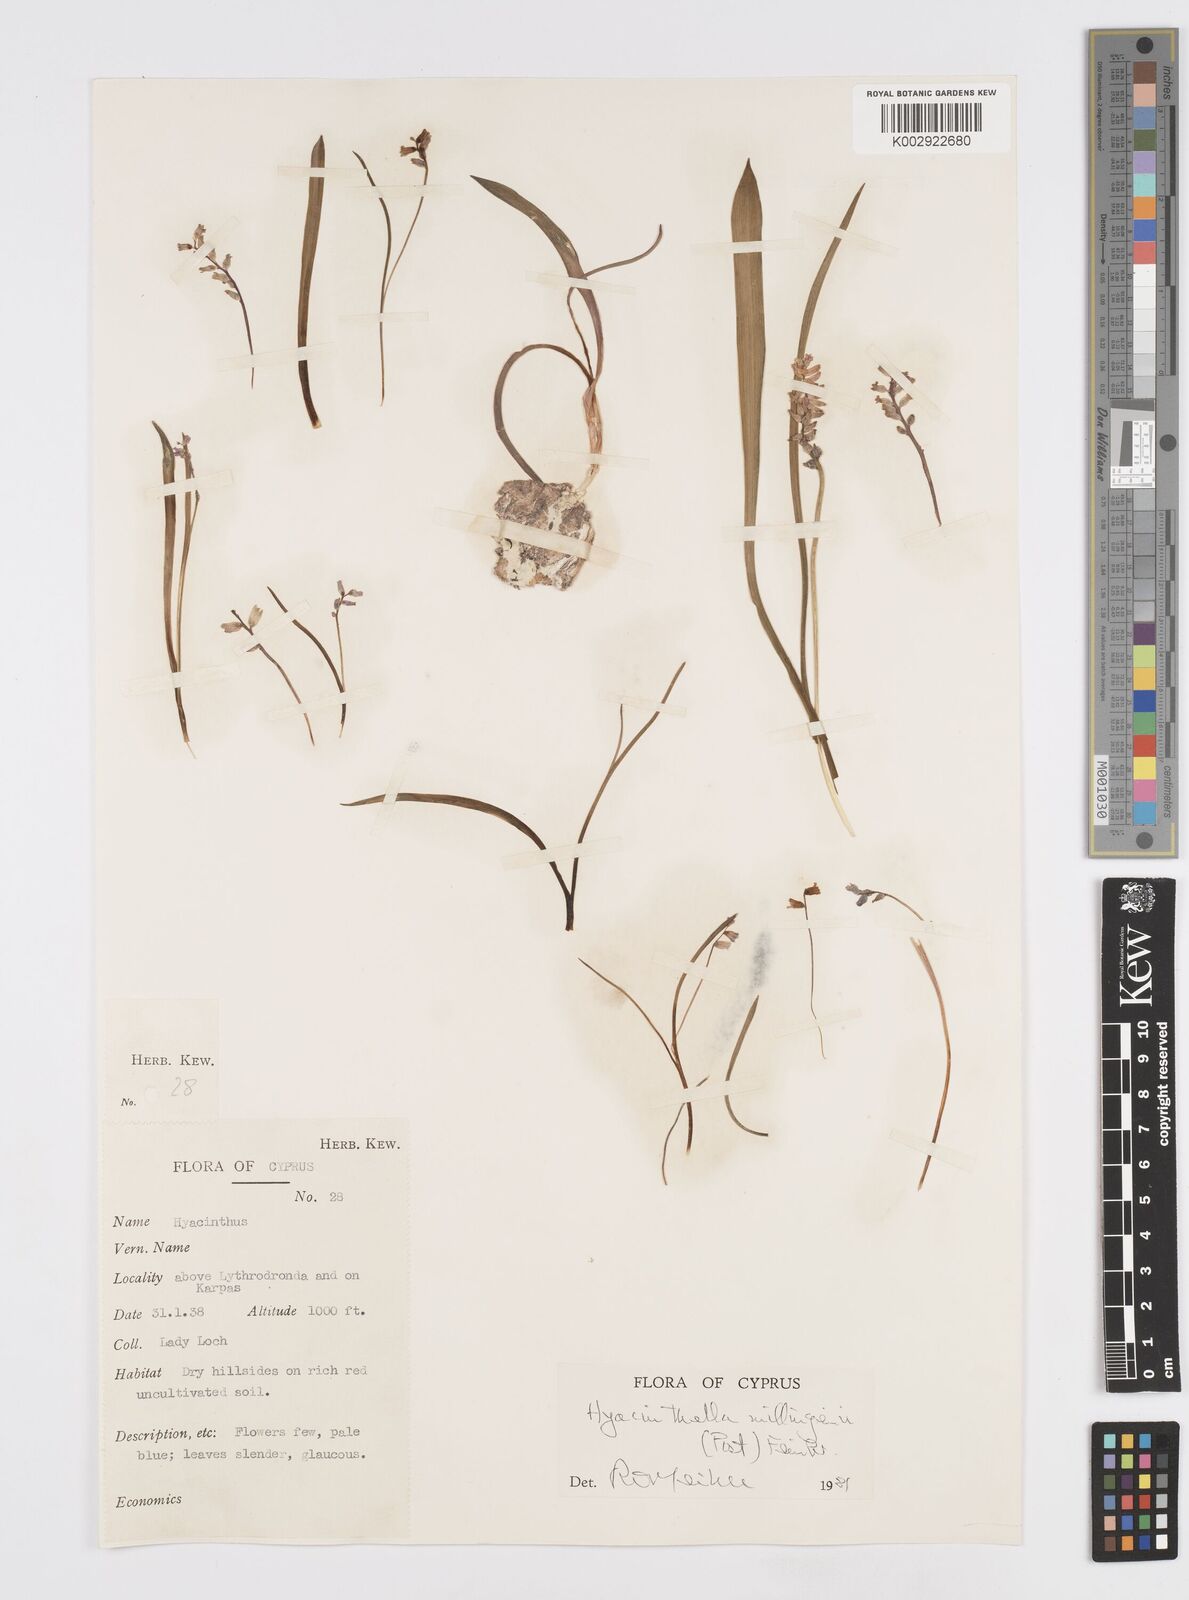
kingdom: Plantae
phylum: Tracheophyta
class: Liliopsida
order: Asparagales
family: Asparagaceae
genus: Hyacinthella
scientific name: Hyacinthella millingenii
